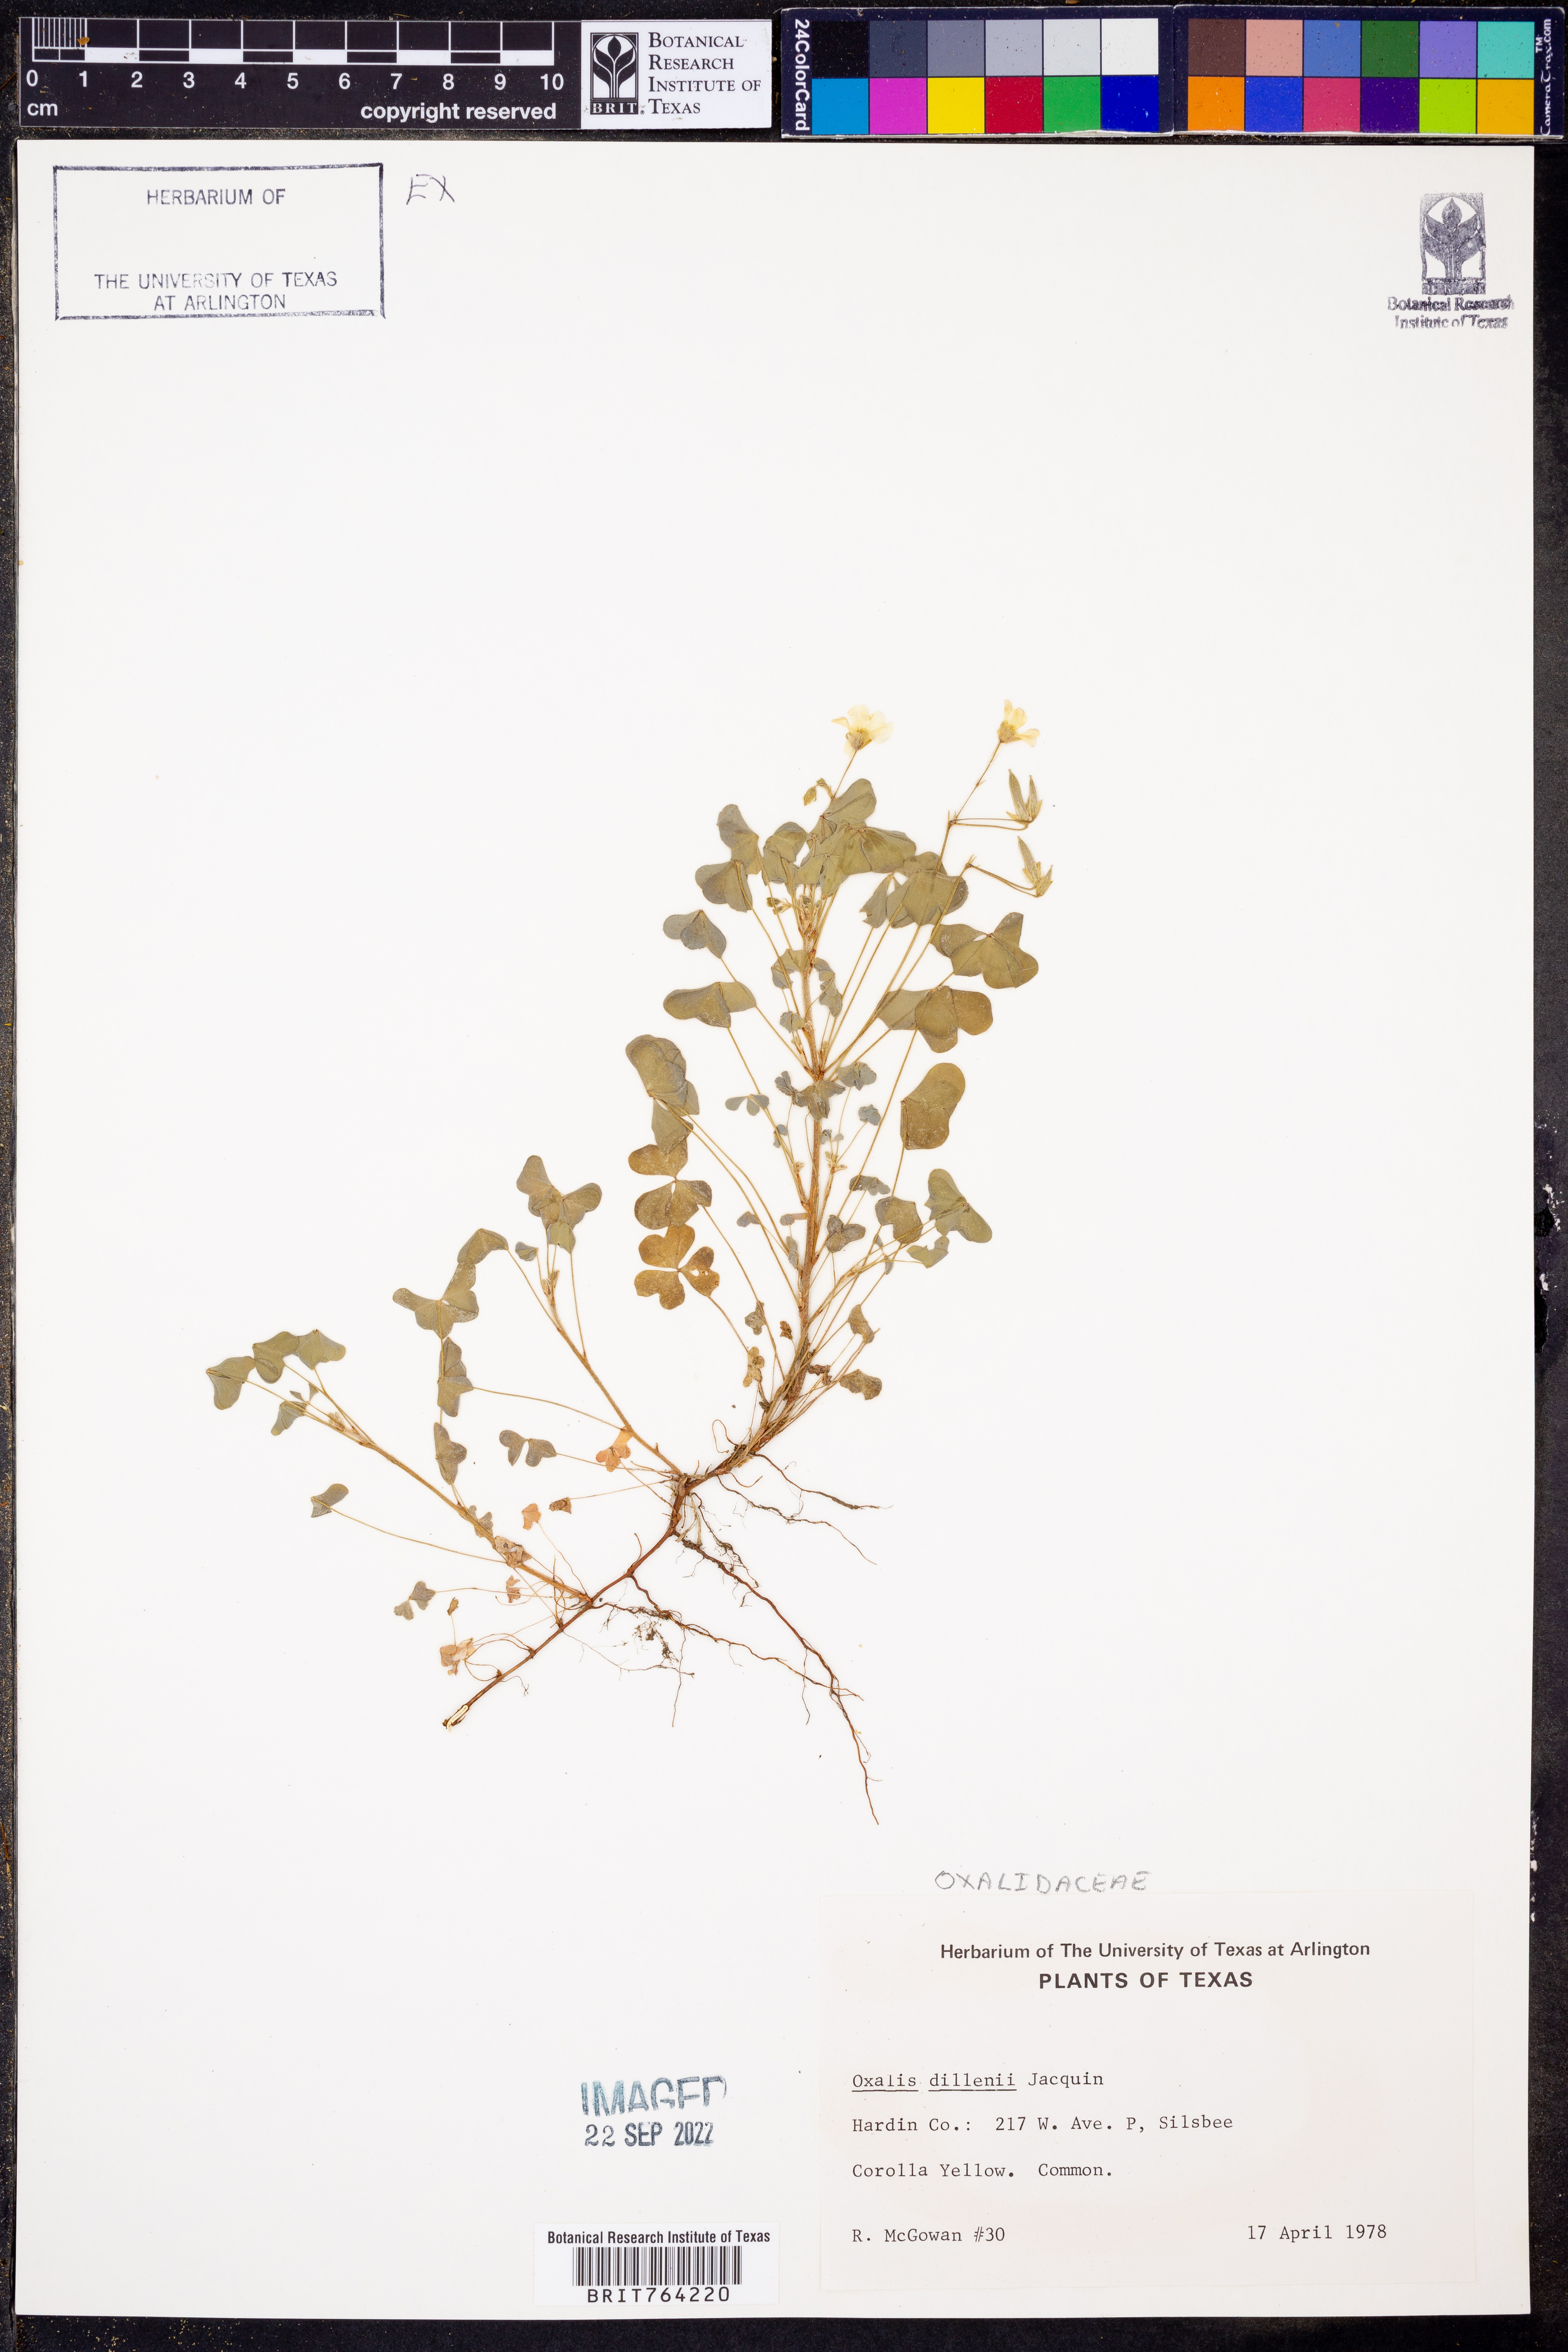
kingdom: Plantae
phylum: Tracheophyta
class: Magnoliopsida
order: Oxalidales
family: Oxalidaceae
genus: Oxalis
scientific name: Oxalis dillenii
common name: Sussex yellow-sorrel
